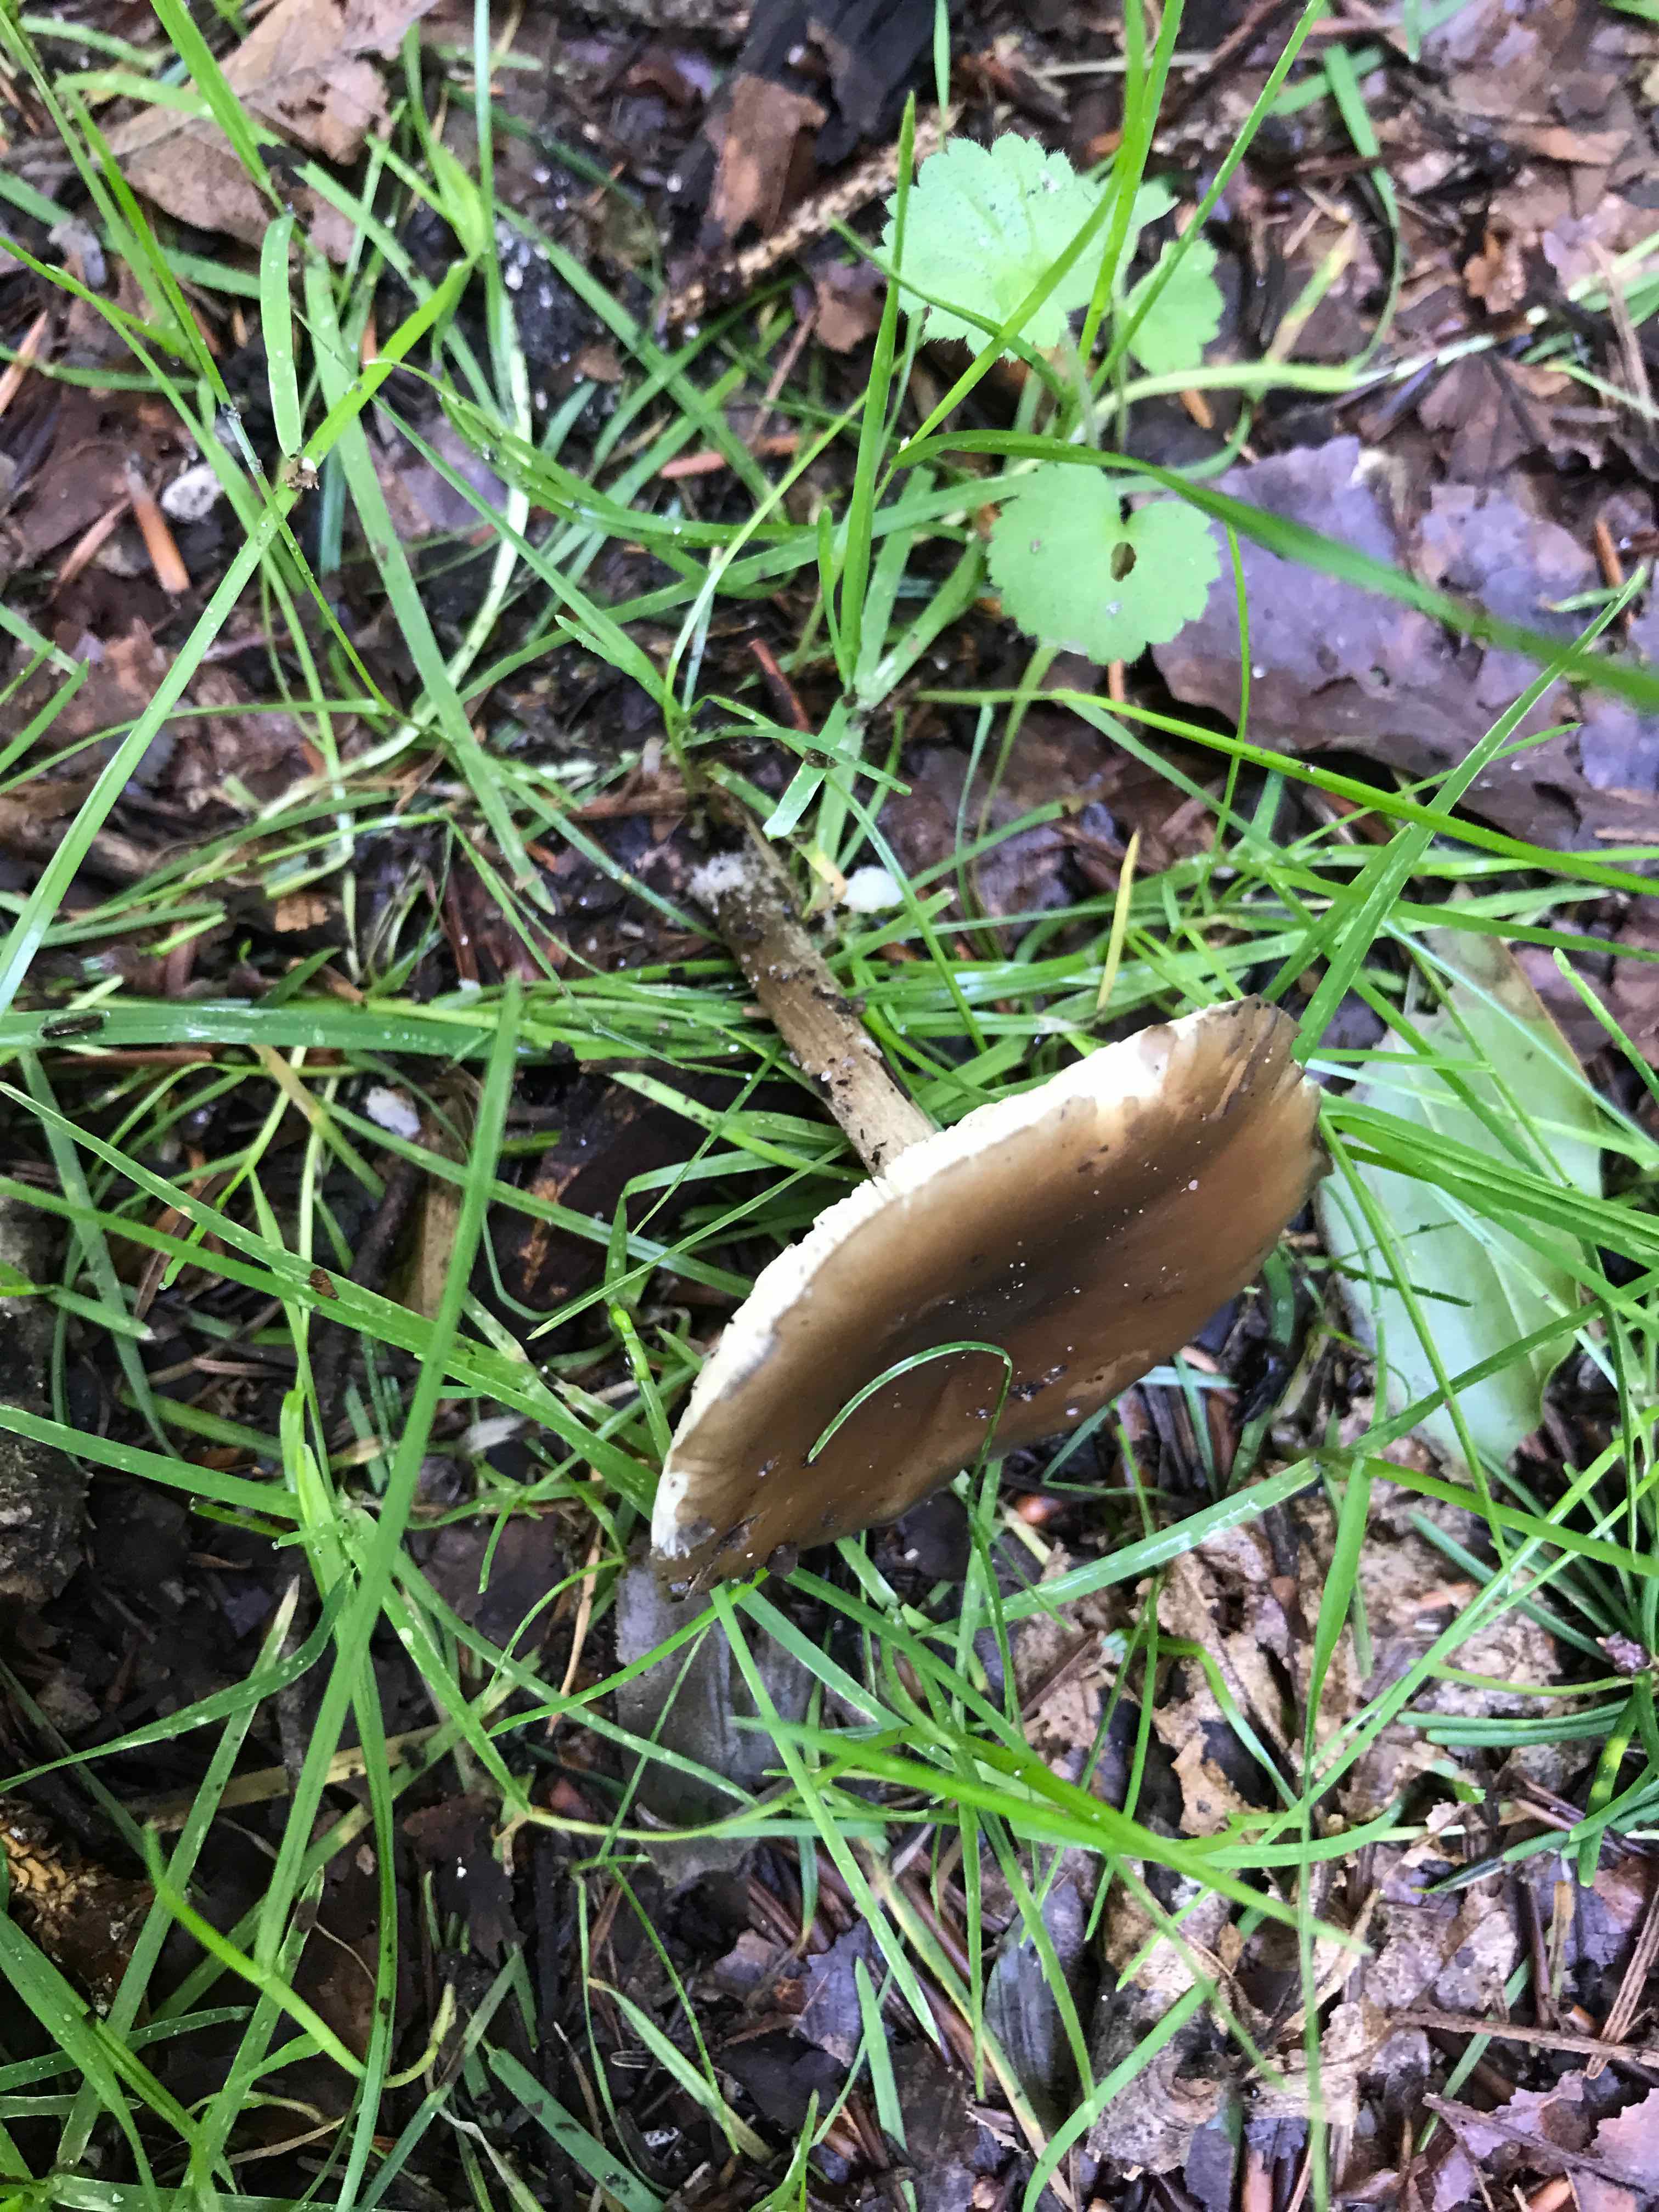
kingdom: Fungi
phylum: Basidiomycota
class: Agaricomycetes
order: Agaricales
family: Tricholomataceae
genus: Melanoleuca
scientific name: Melanoleuca
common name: munkehat
